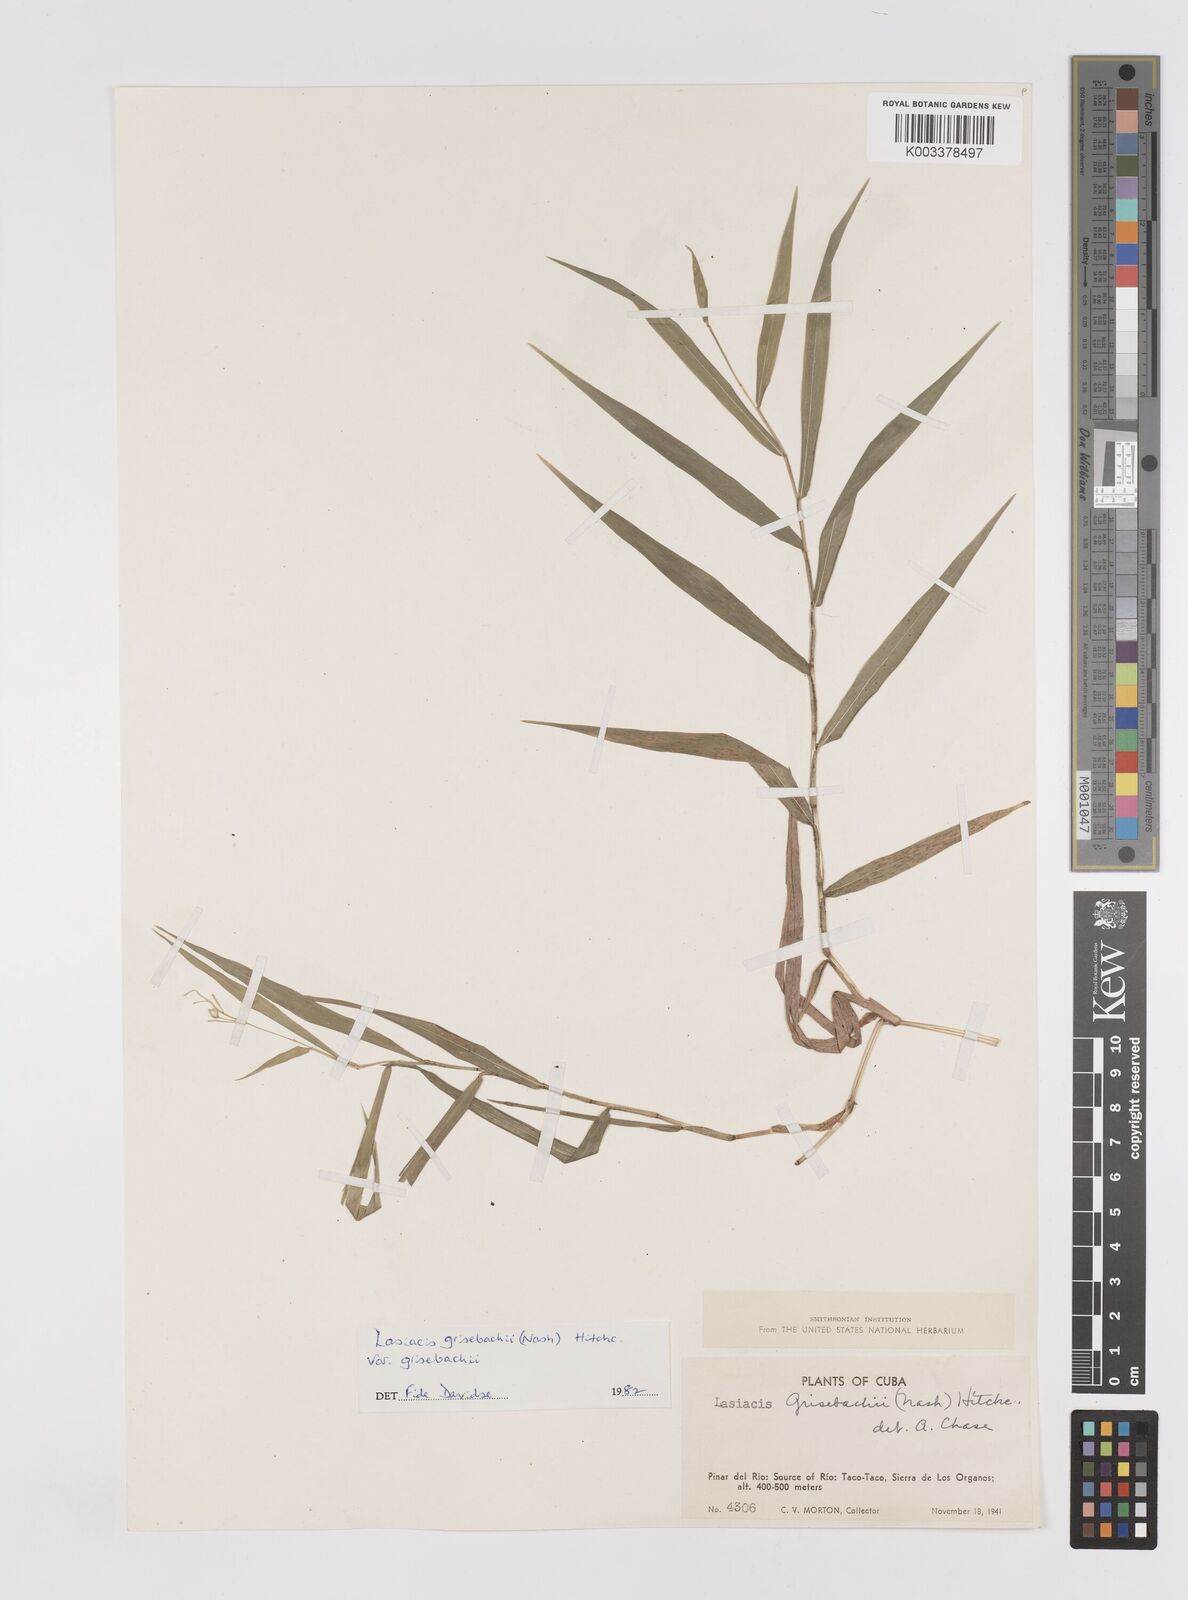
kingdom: Plantae
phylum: Tracheophyta
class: Liliopsida
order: Poales
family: Poaceae
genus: Lasiacis
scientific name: Lasiacis grisebachii
